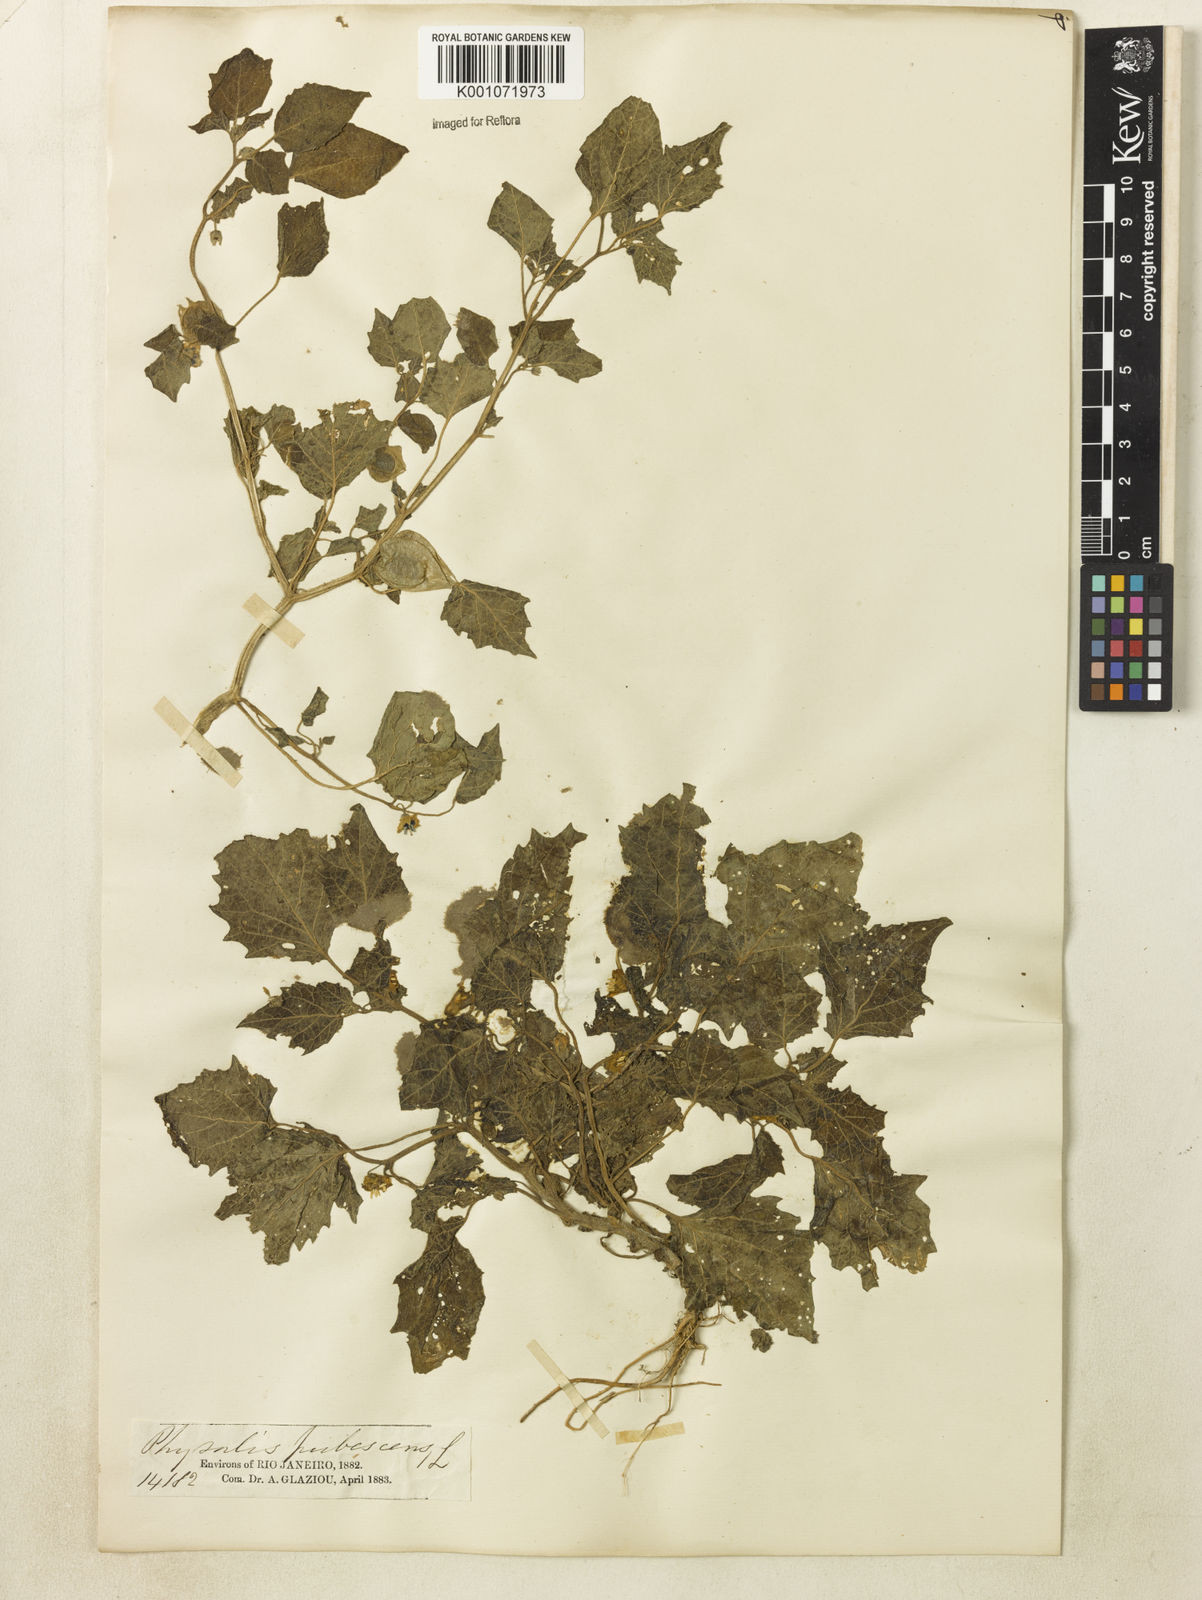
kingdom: Plantae
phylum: Tracheophyta
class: Magnoliopsida
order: Solanales
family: Solanaceae
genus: Physalis
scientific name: Physalis pubescens
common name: Downy ground-cherry
